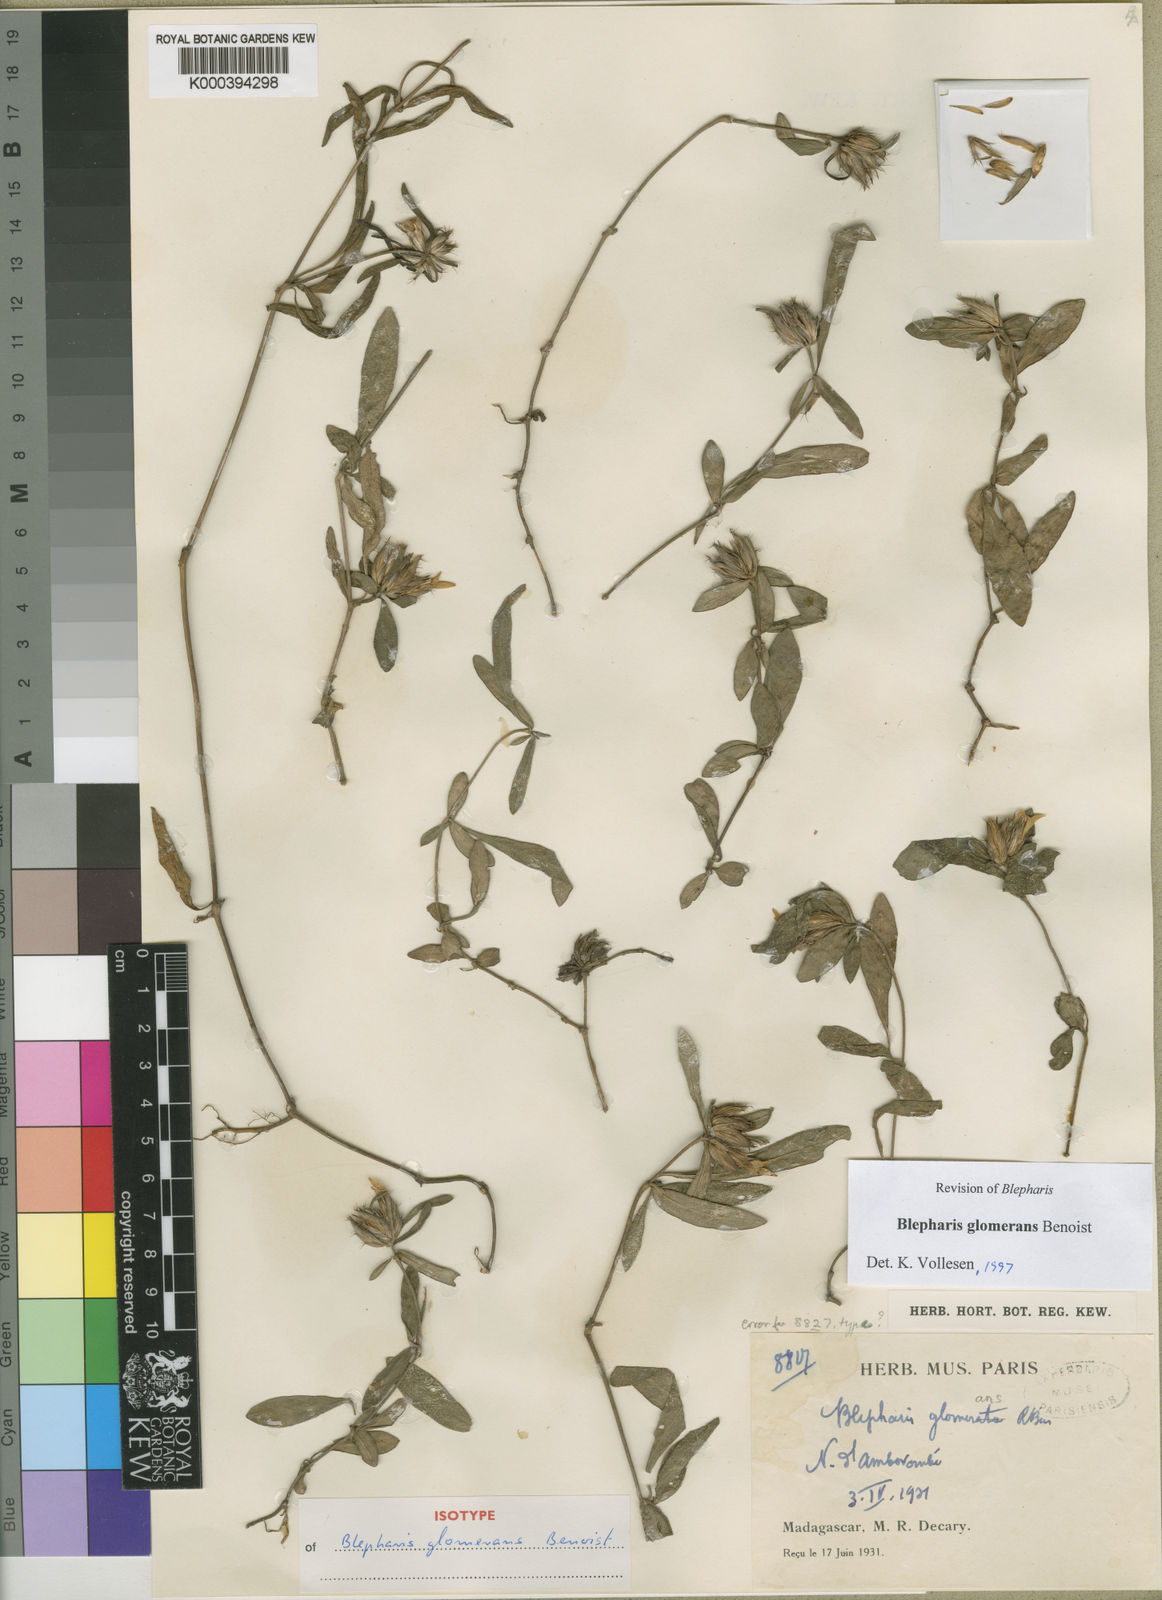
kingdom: Plantae
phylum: Tracheophyta
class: Magnoliopsida
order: Lamiales
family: Acanthaceae
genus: Blepharis
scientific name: Blepharis glomerans
